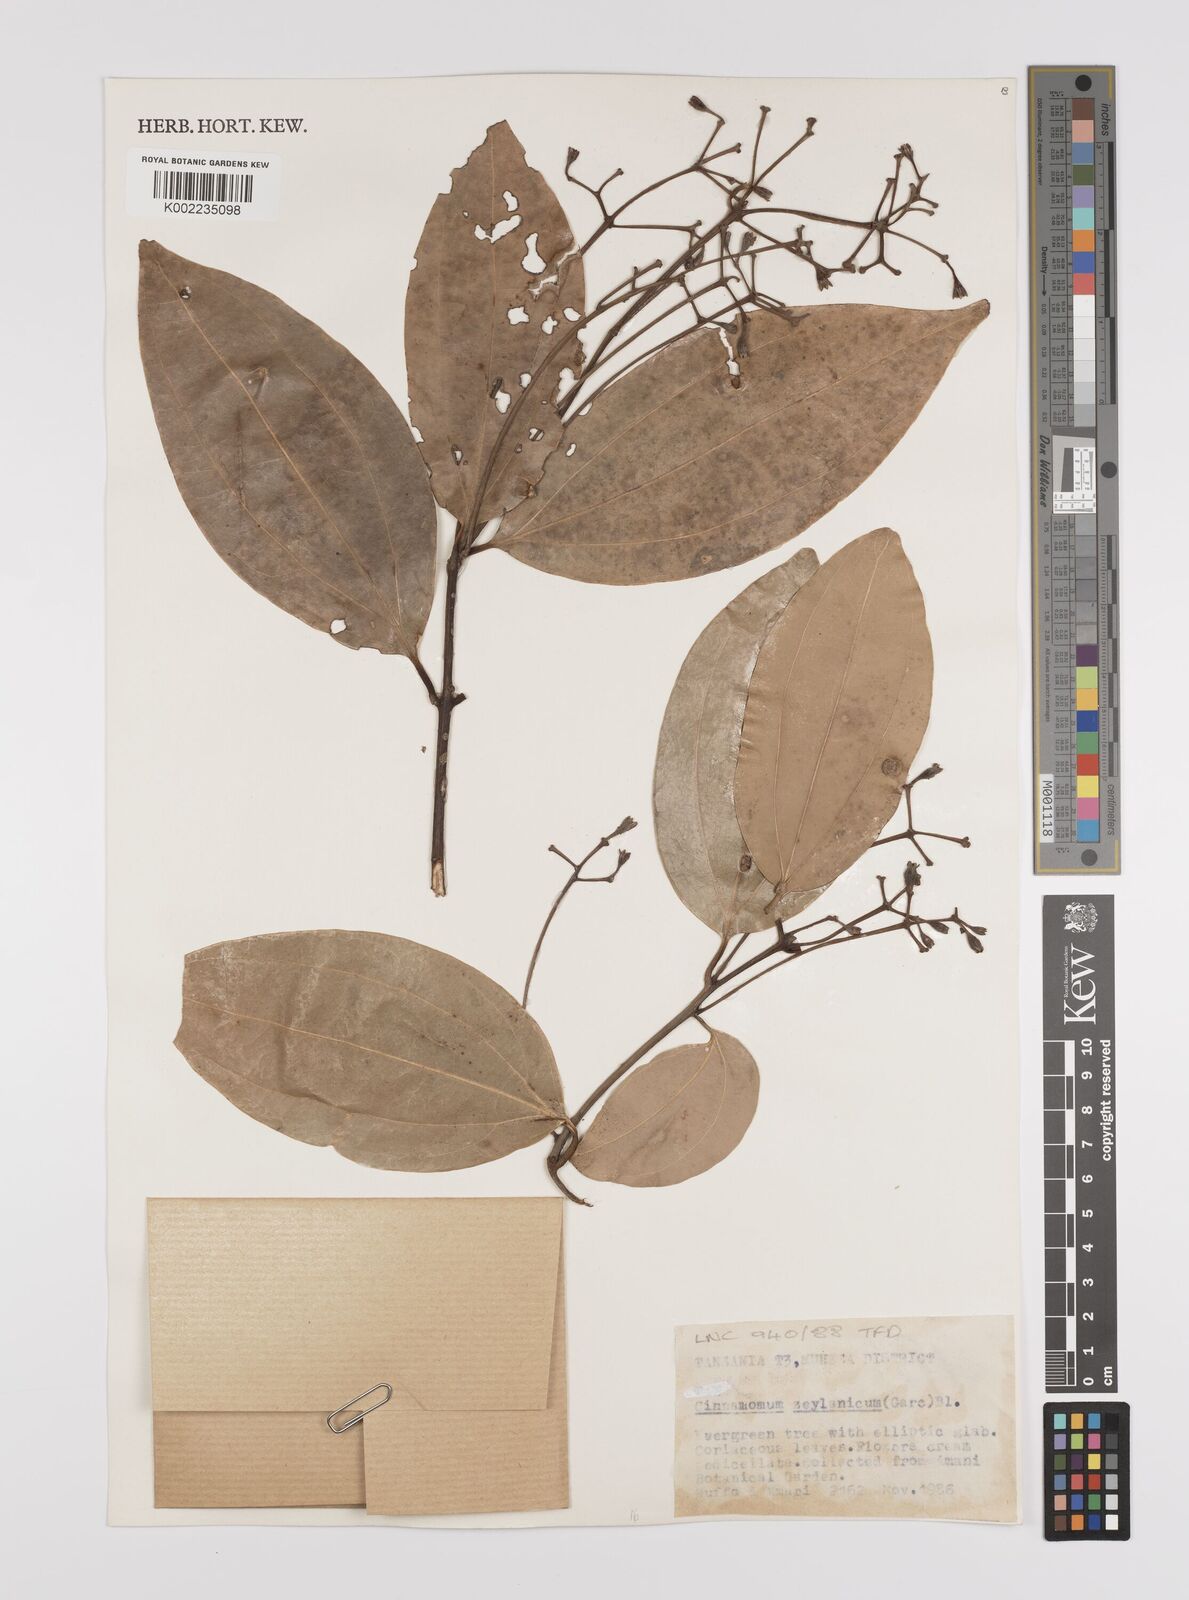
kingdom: Plantae
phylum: Tracheophyta
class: Magnoliopsida
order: Laurales
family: Lauraceae
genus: Cinnamomum
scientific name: Cinnamomum verum
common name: Cinnamon
